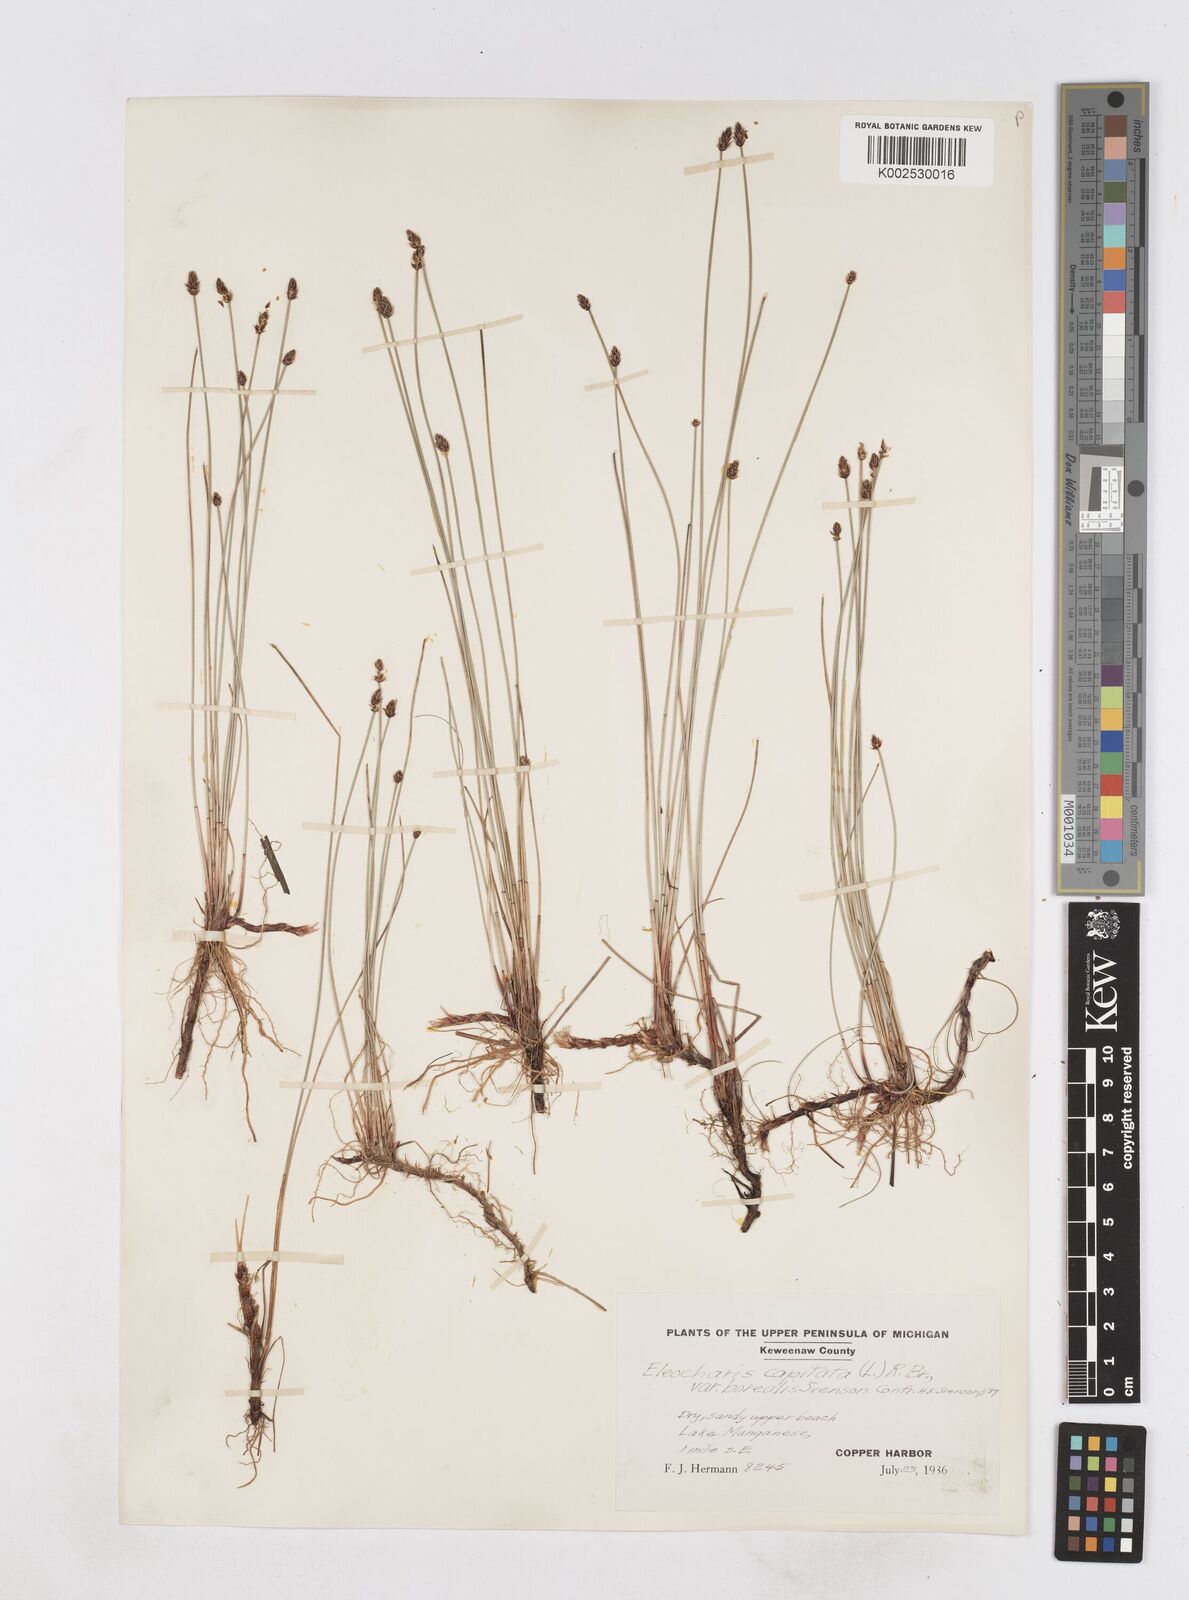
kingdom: Plantae
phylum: Tracheophyta
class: Liliopsida
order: Poales
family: Cyperaceae
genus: Eleocharis
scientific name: Eleocharis geniculata
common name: Canada spikesedge
